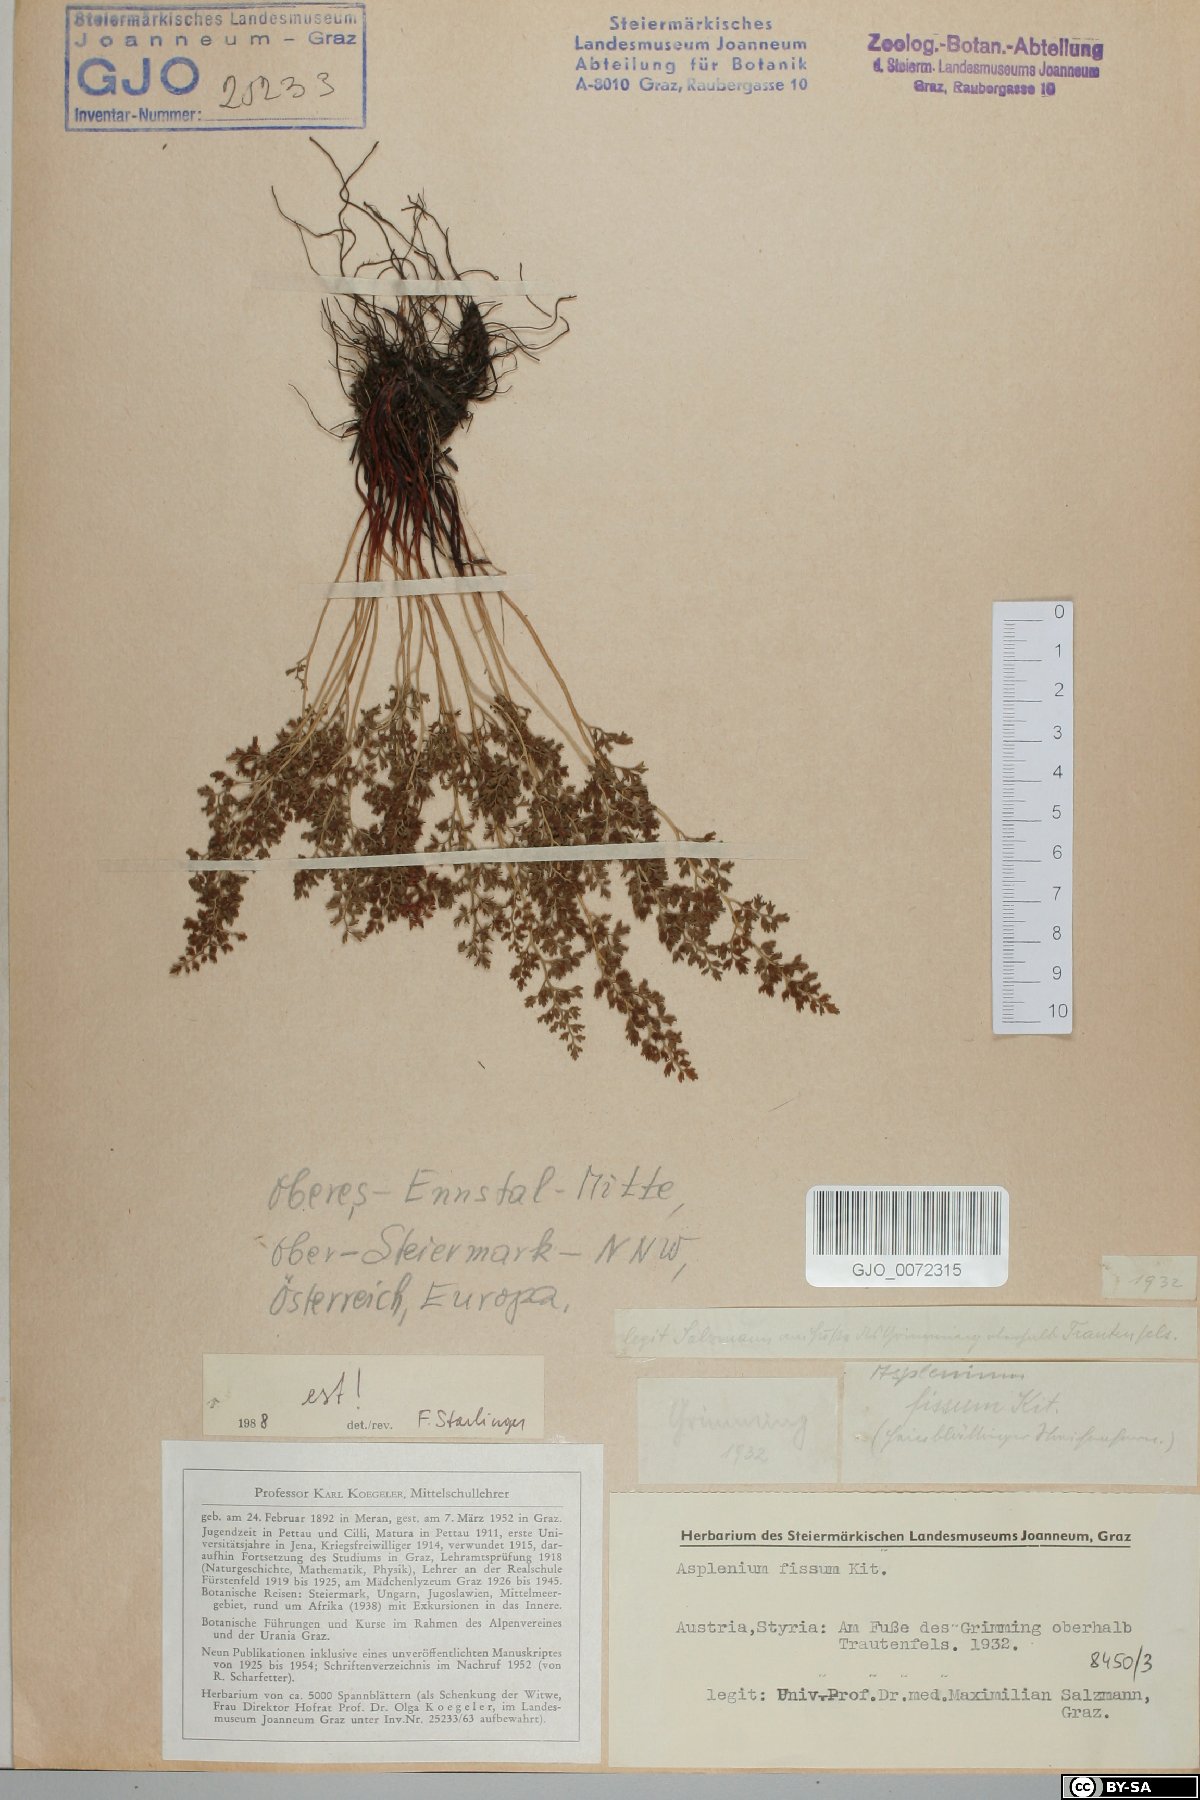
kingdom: Plantae
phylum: Tracheophyta
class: Polypodiopsida
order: Polypodiales
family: Aspleniaceae
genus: Asplenium
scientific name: Asplenium fissum
